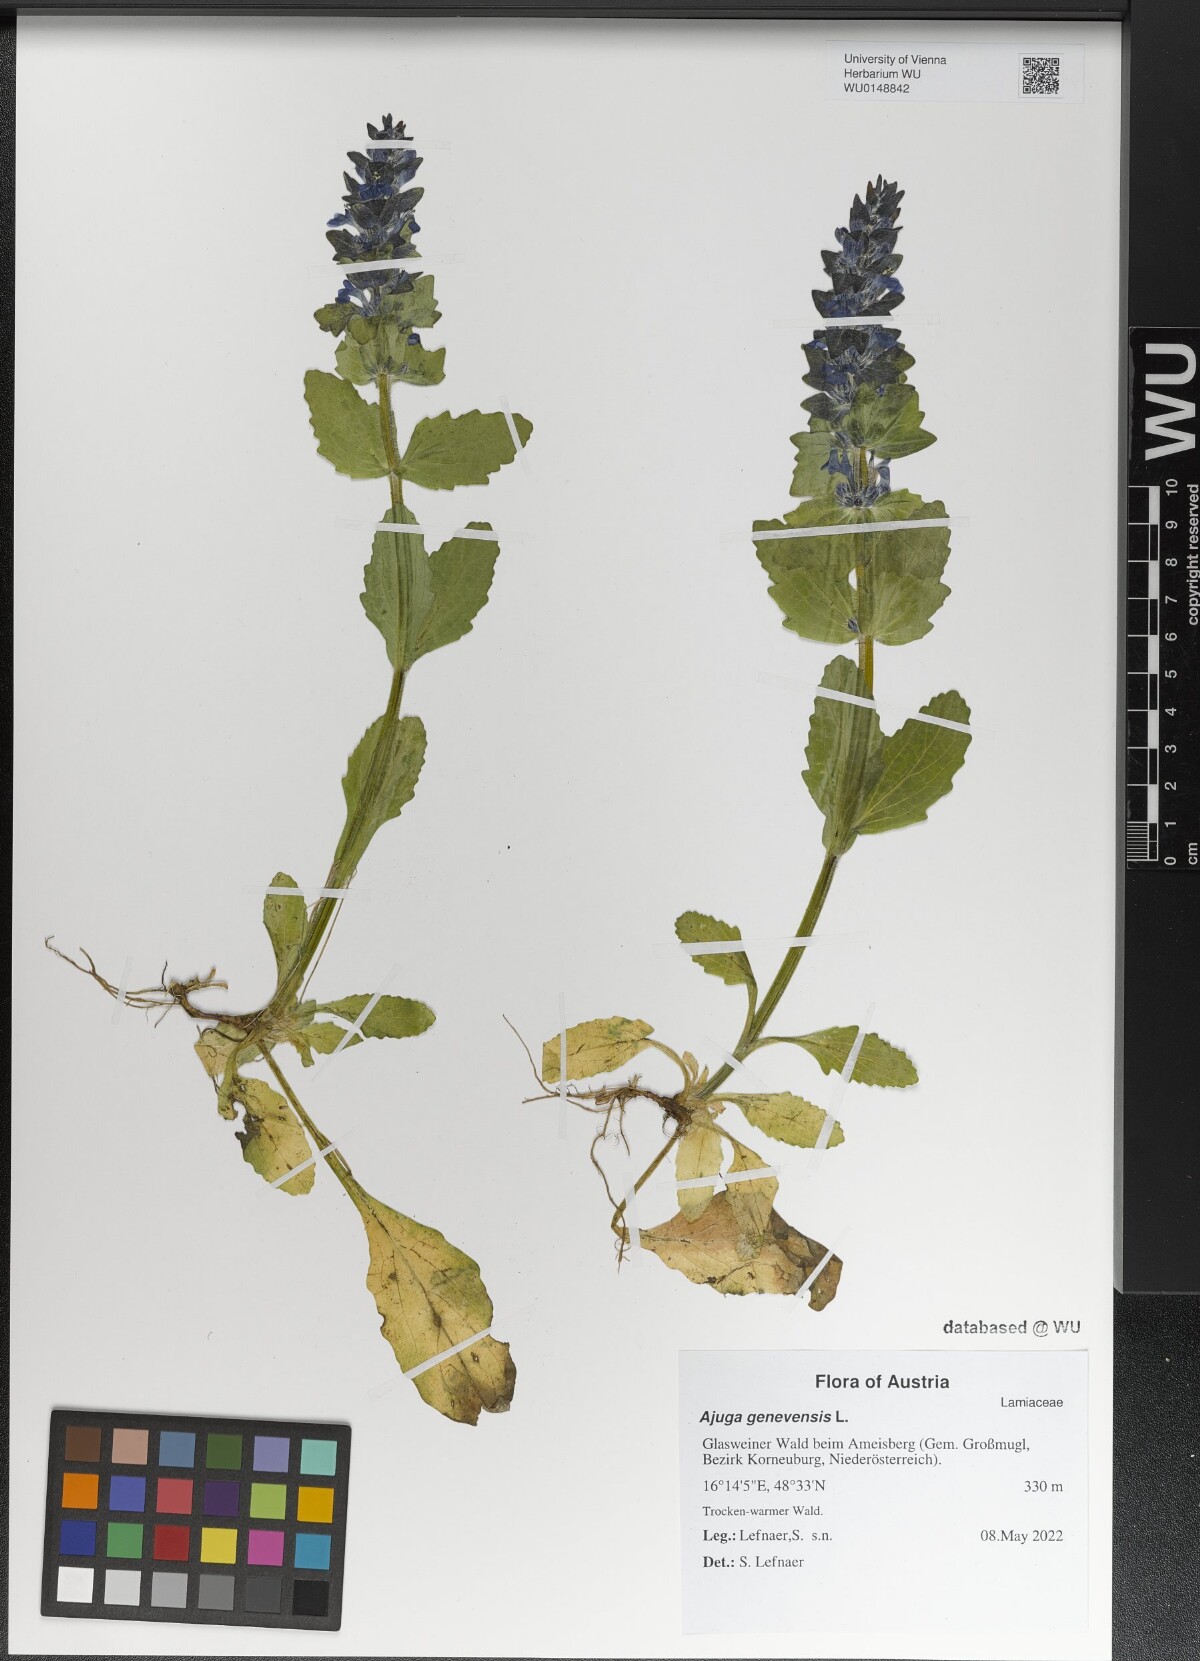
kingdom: Plantae
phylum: Tracheophyta
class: Magnoliopsida
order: Lamiales
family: Lamiaceae
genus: Ajuga
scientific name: Ajuga genevensis
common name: Blue bugle
